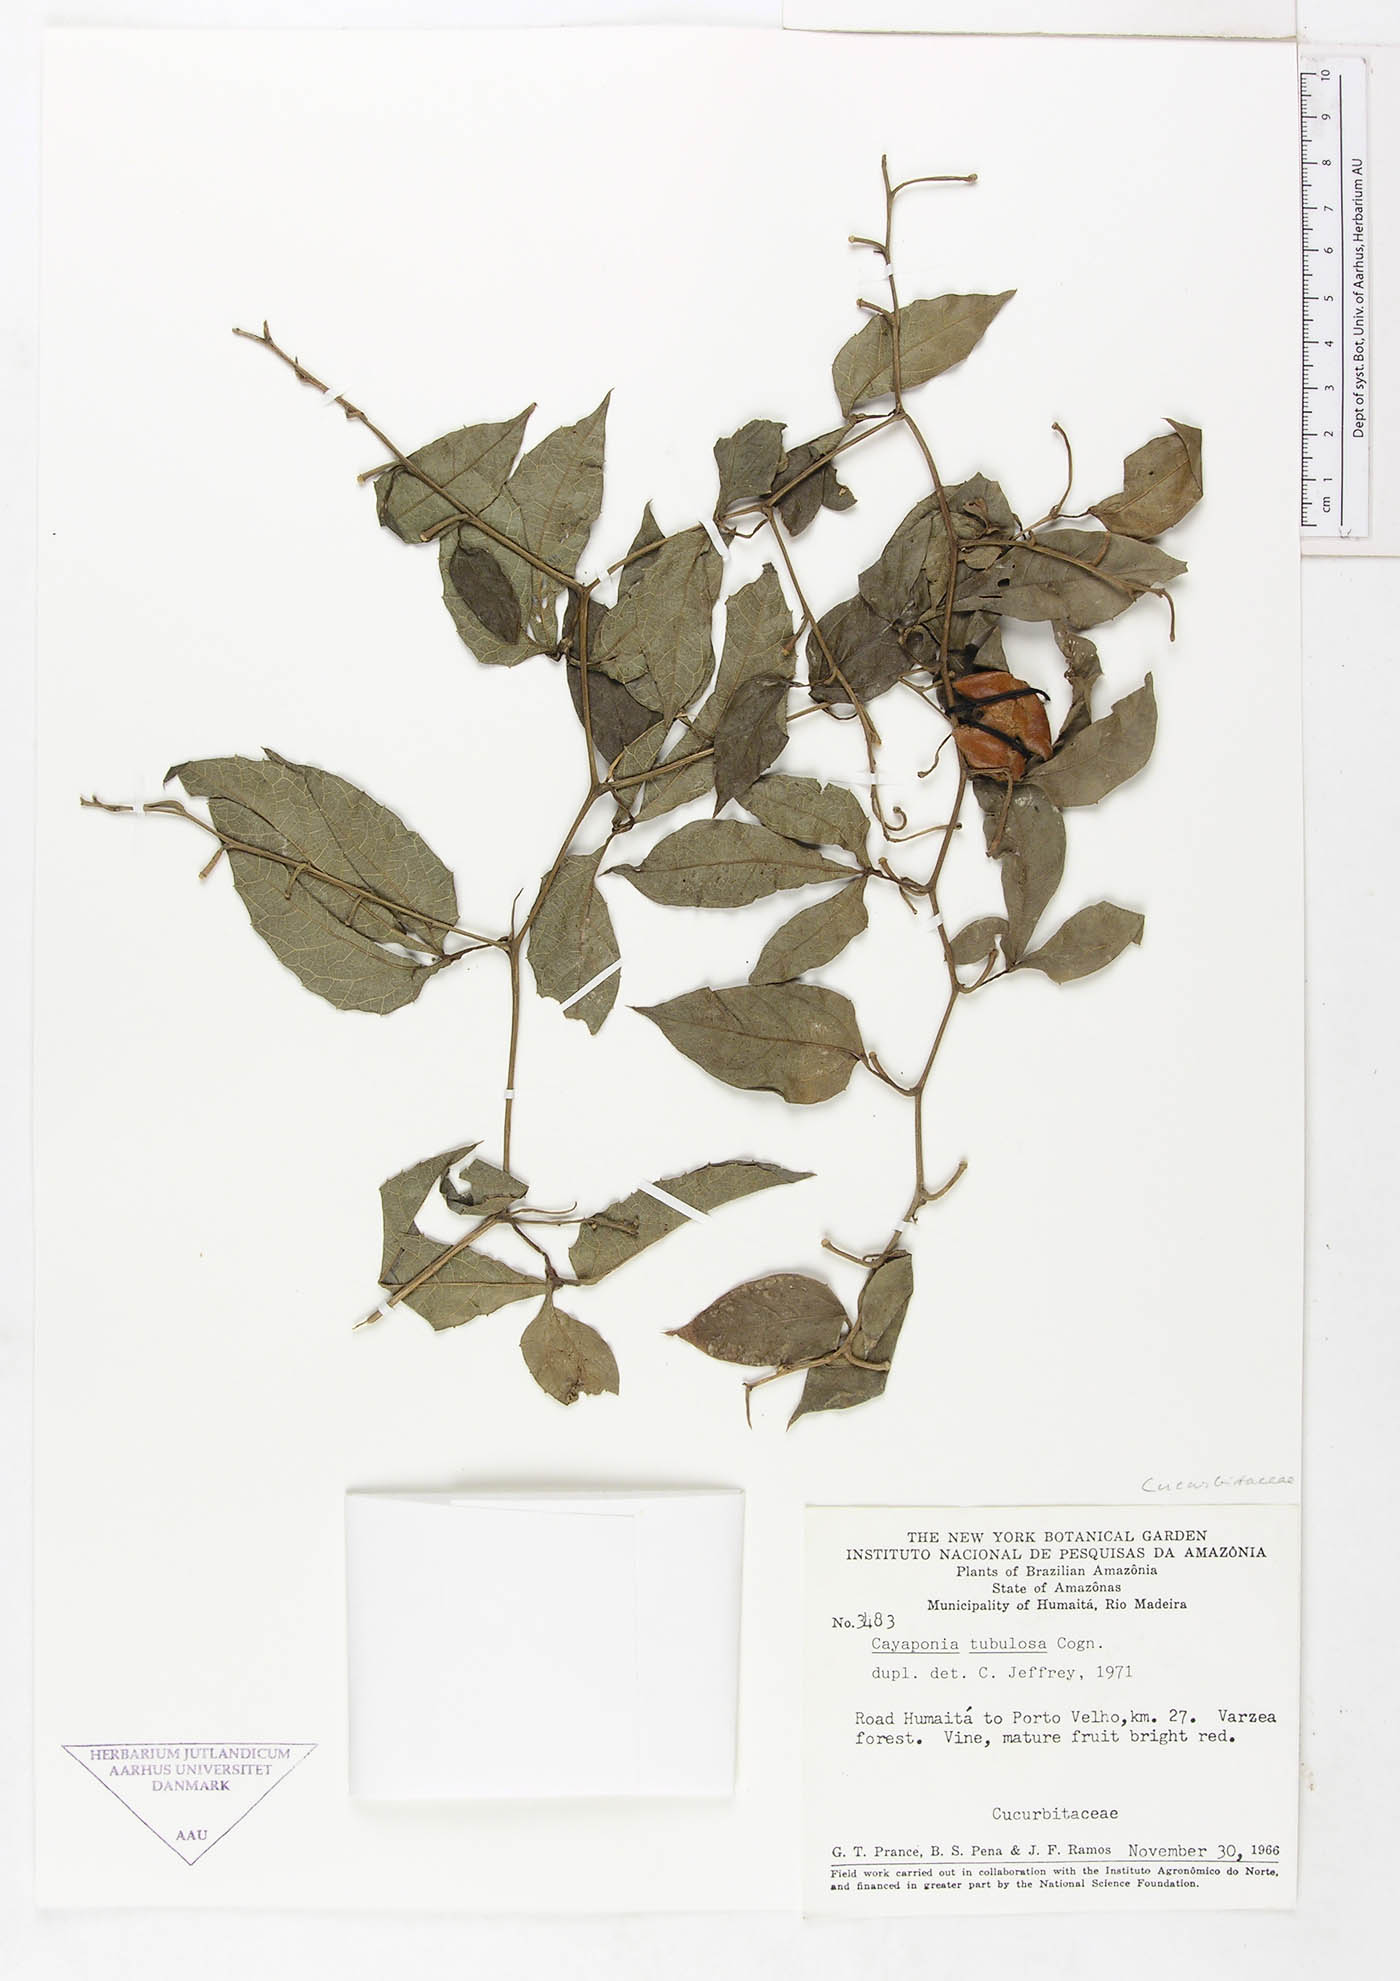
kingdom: Plantae
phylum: Tracheophyta
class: Magnoliopsida
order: Cucurbitales
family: Cucurbitaceae
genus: Cayaponia
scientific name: Cayaponia tubulosa
